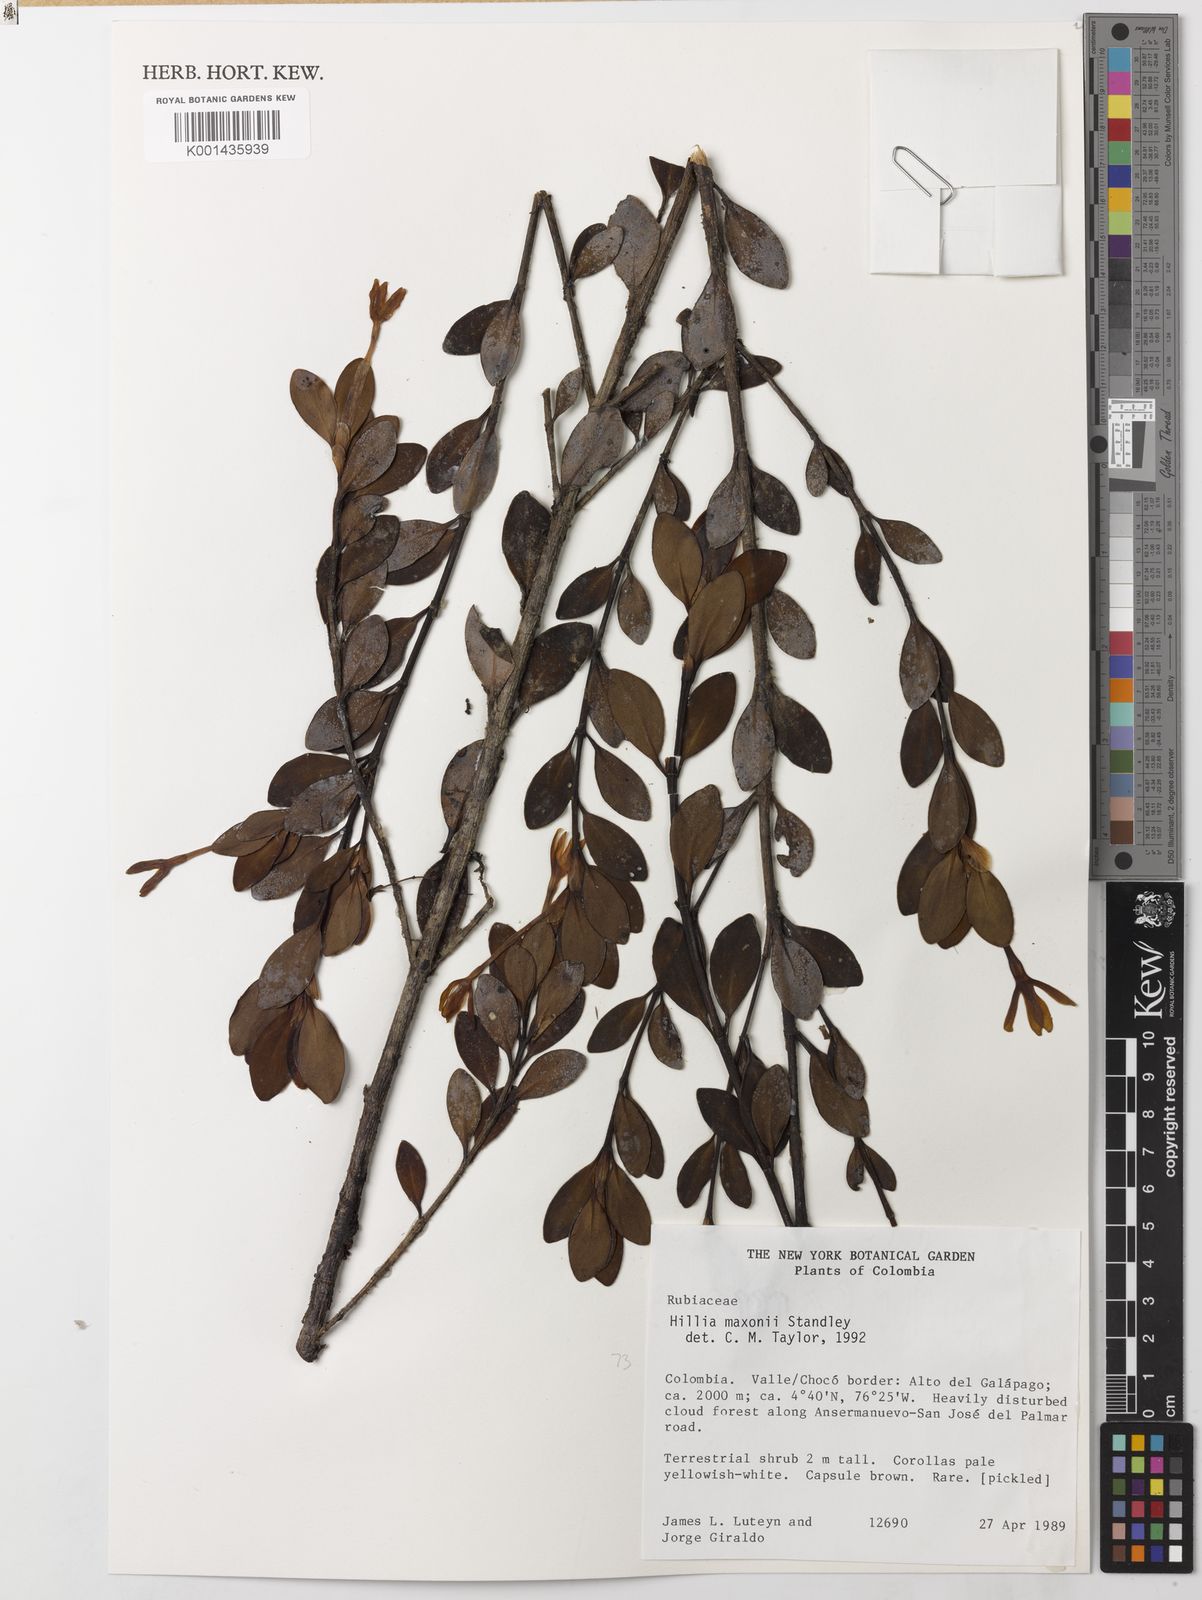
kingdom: Plantae
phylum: Tracheophyta
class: Magnoliopsida
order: Gentianales
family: Rubiaceae
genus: Hillia
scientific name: Hillia maxonii
